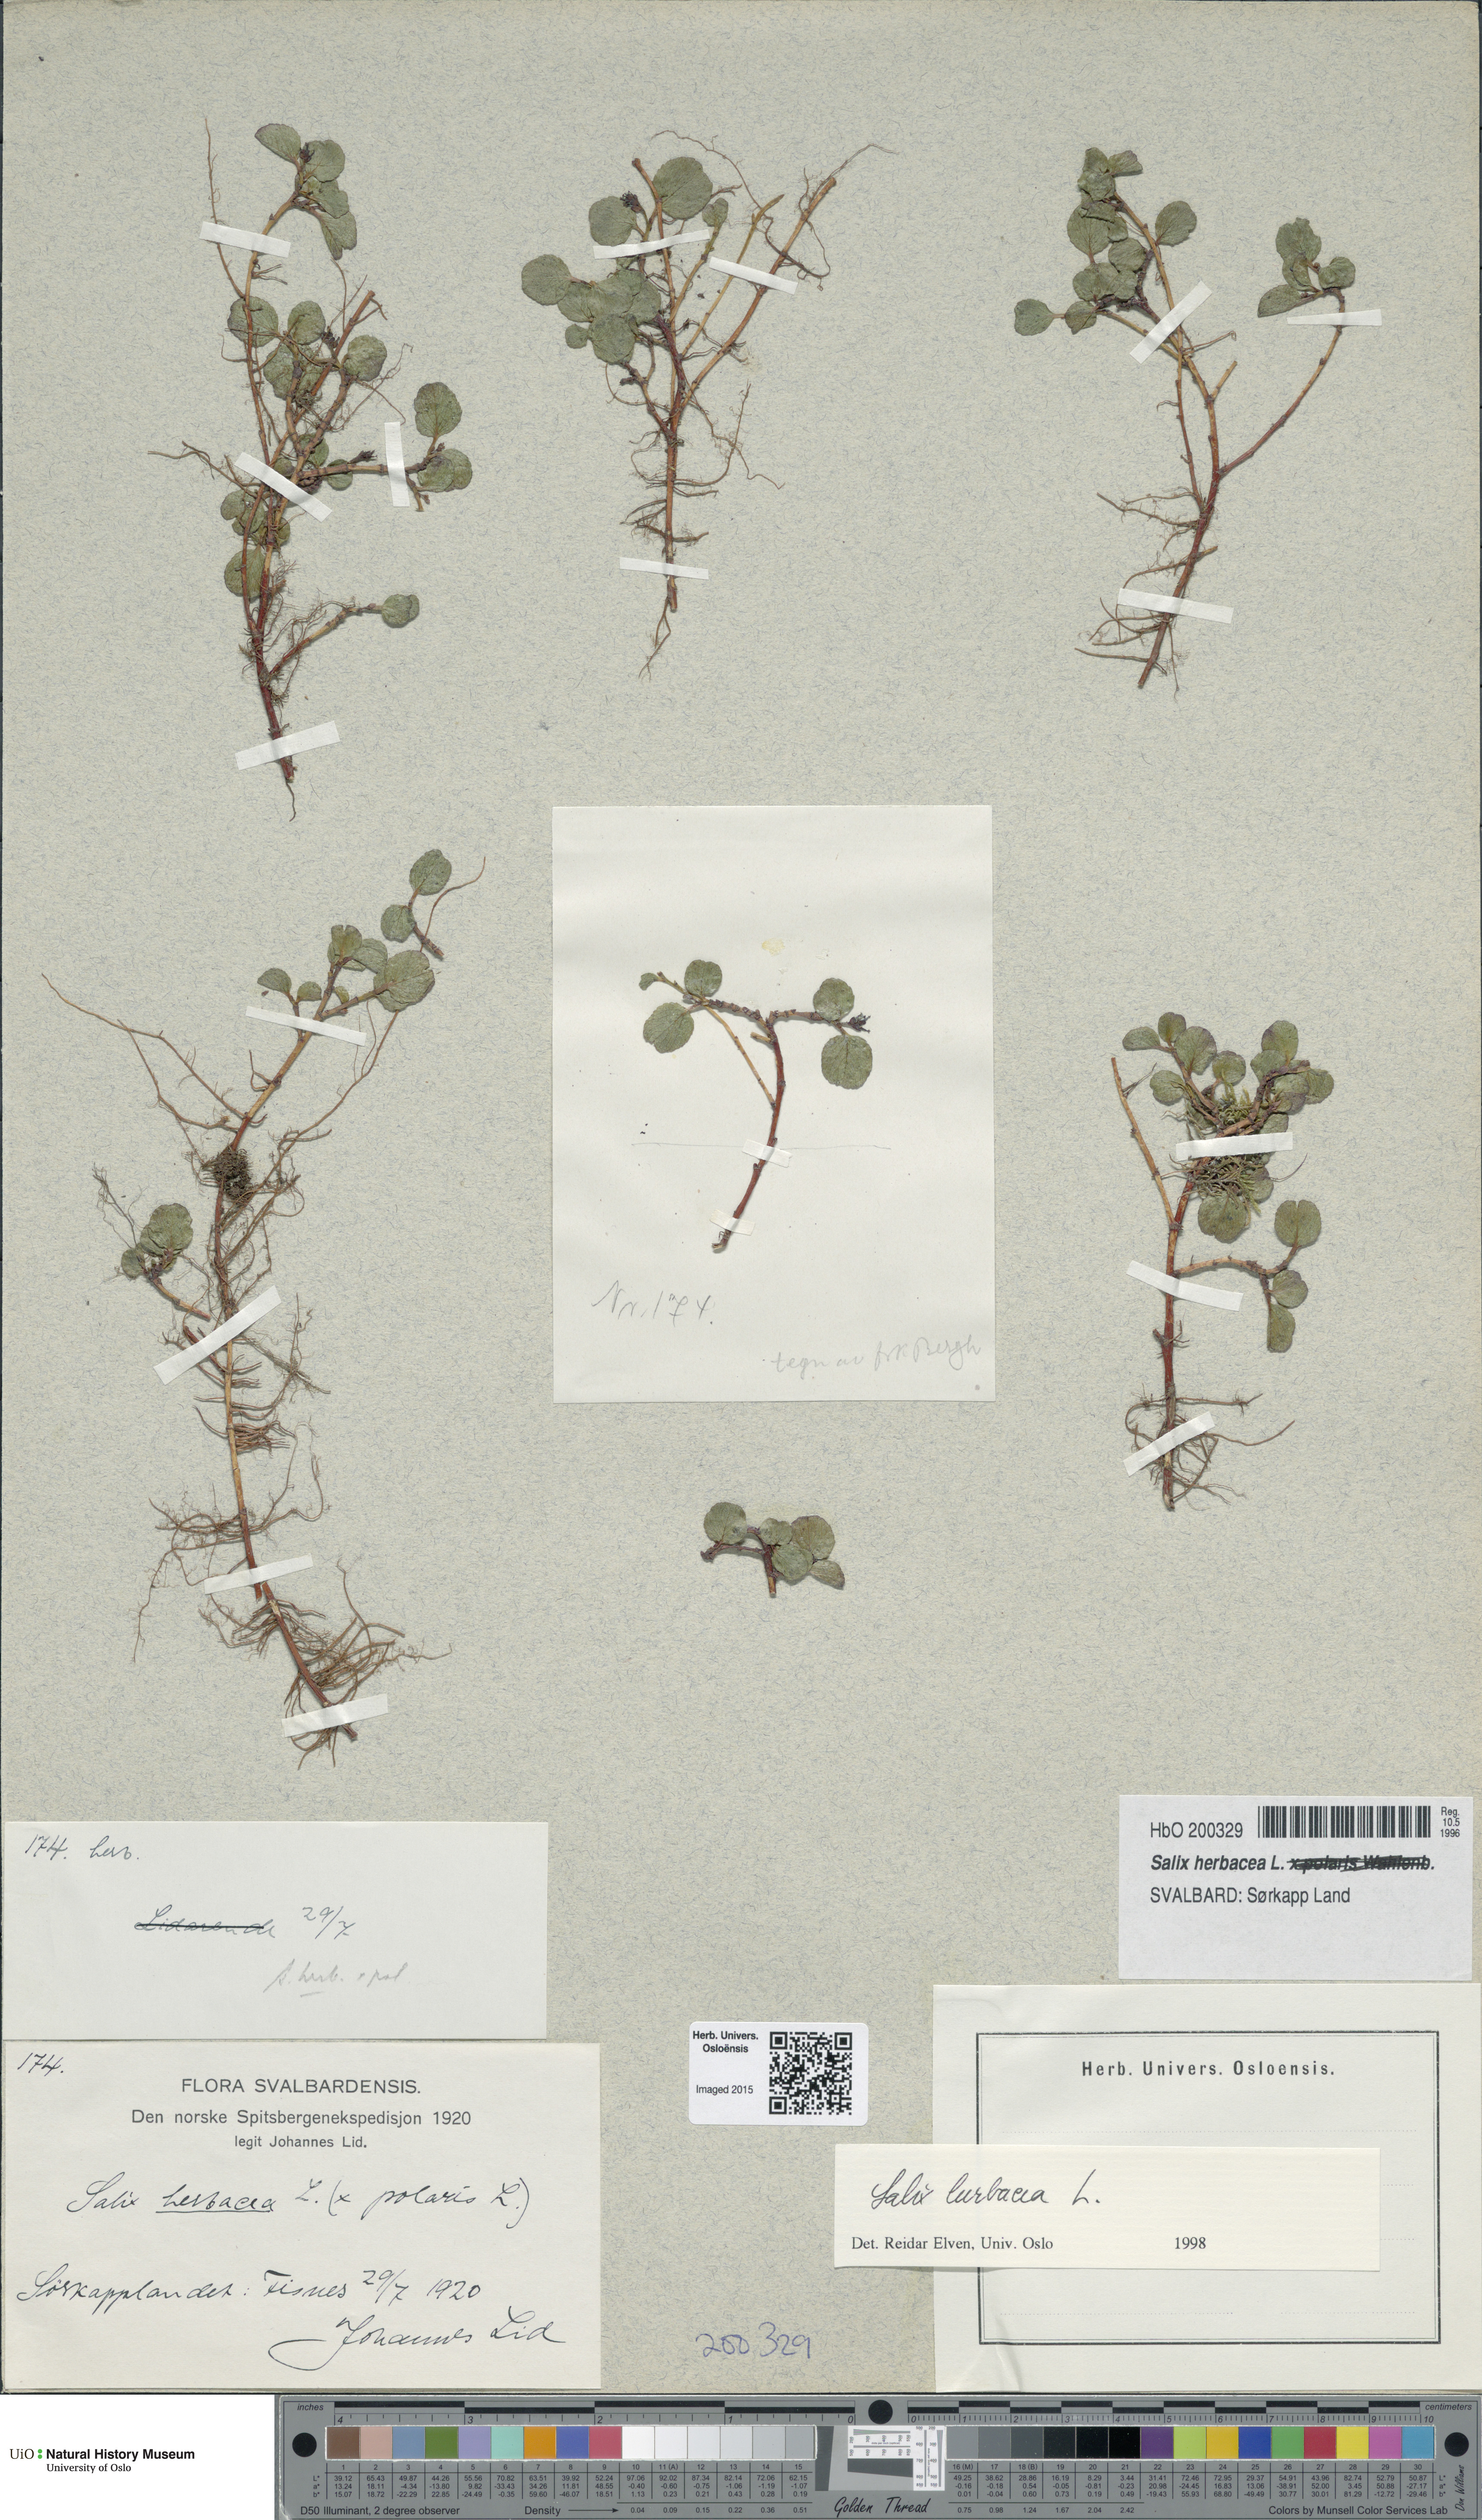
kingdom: Plantae
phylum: Tracheophyta
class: Magnoliopsida
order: Malpighiales
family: Salicaceae
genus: Salix
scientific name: Salix herbacea
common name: Dwarf willow
